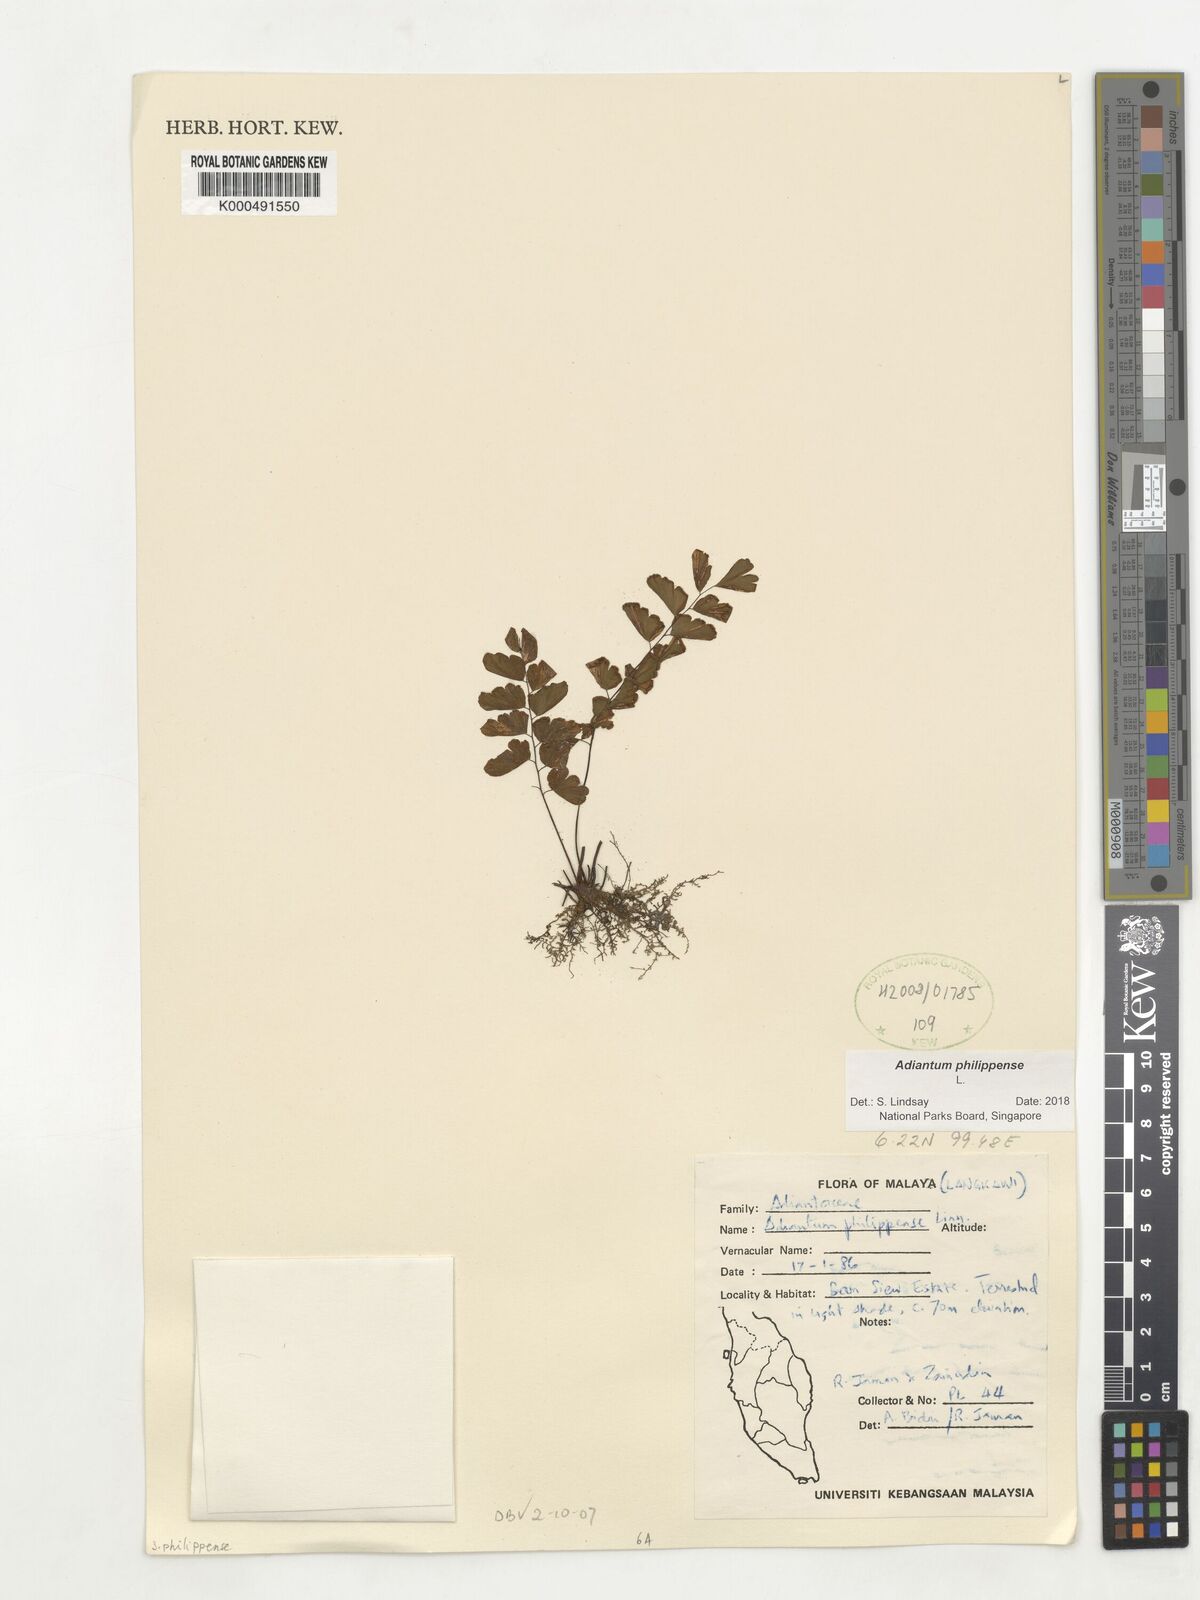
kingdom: Plantae
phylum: Tracheophyta
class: Polypodiopsida
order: Polypodiales
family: Pteridaceae
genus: Adiantum
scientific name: Adiantum philippense
